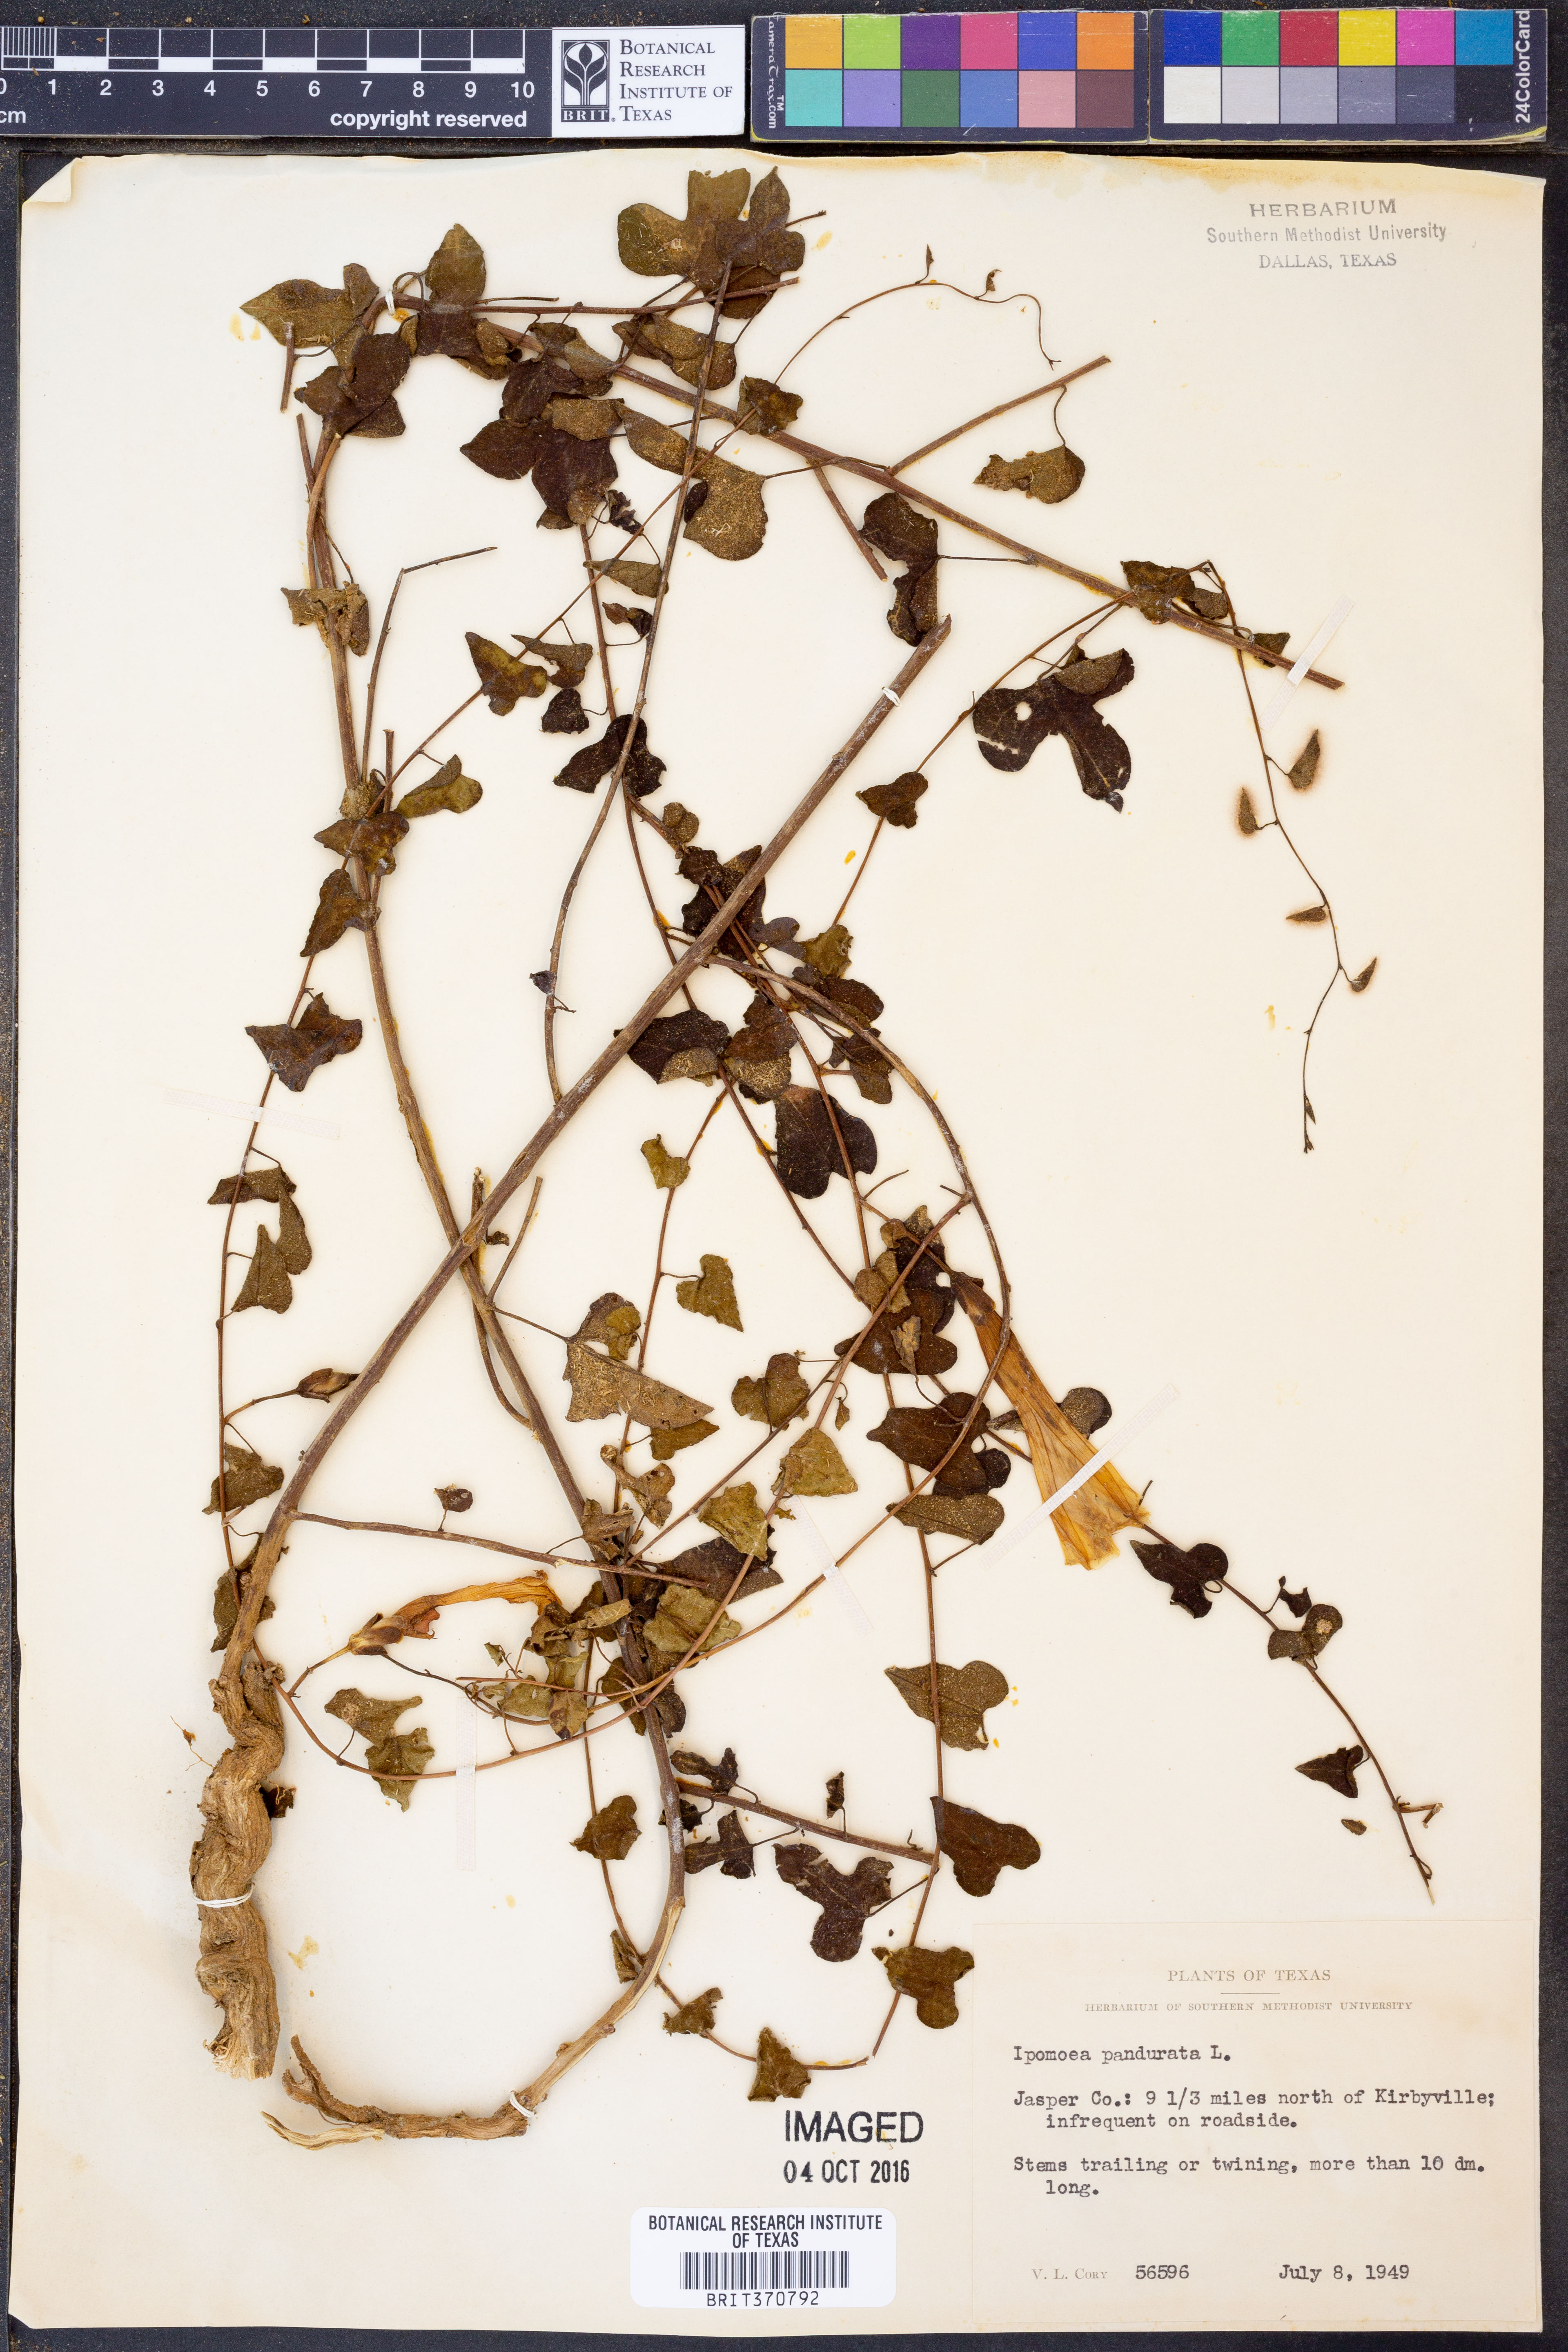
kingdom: Plantae
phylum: Tracheophyta
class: Magnoliopsida
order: Solanales
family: Convolvulaceae
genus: Ipomoea
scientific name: Ipomoea pandurata
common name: Man-of-the-earth
